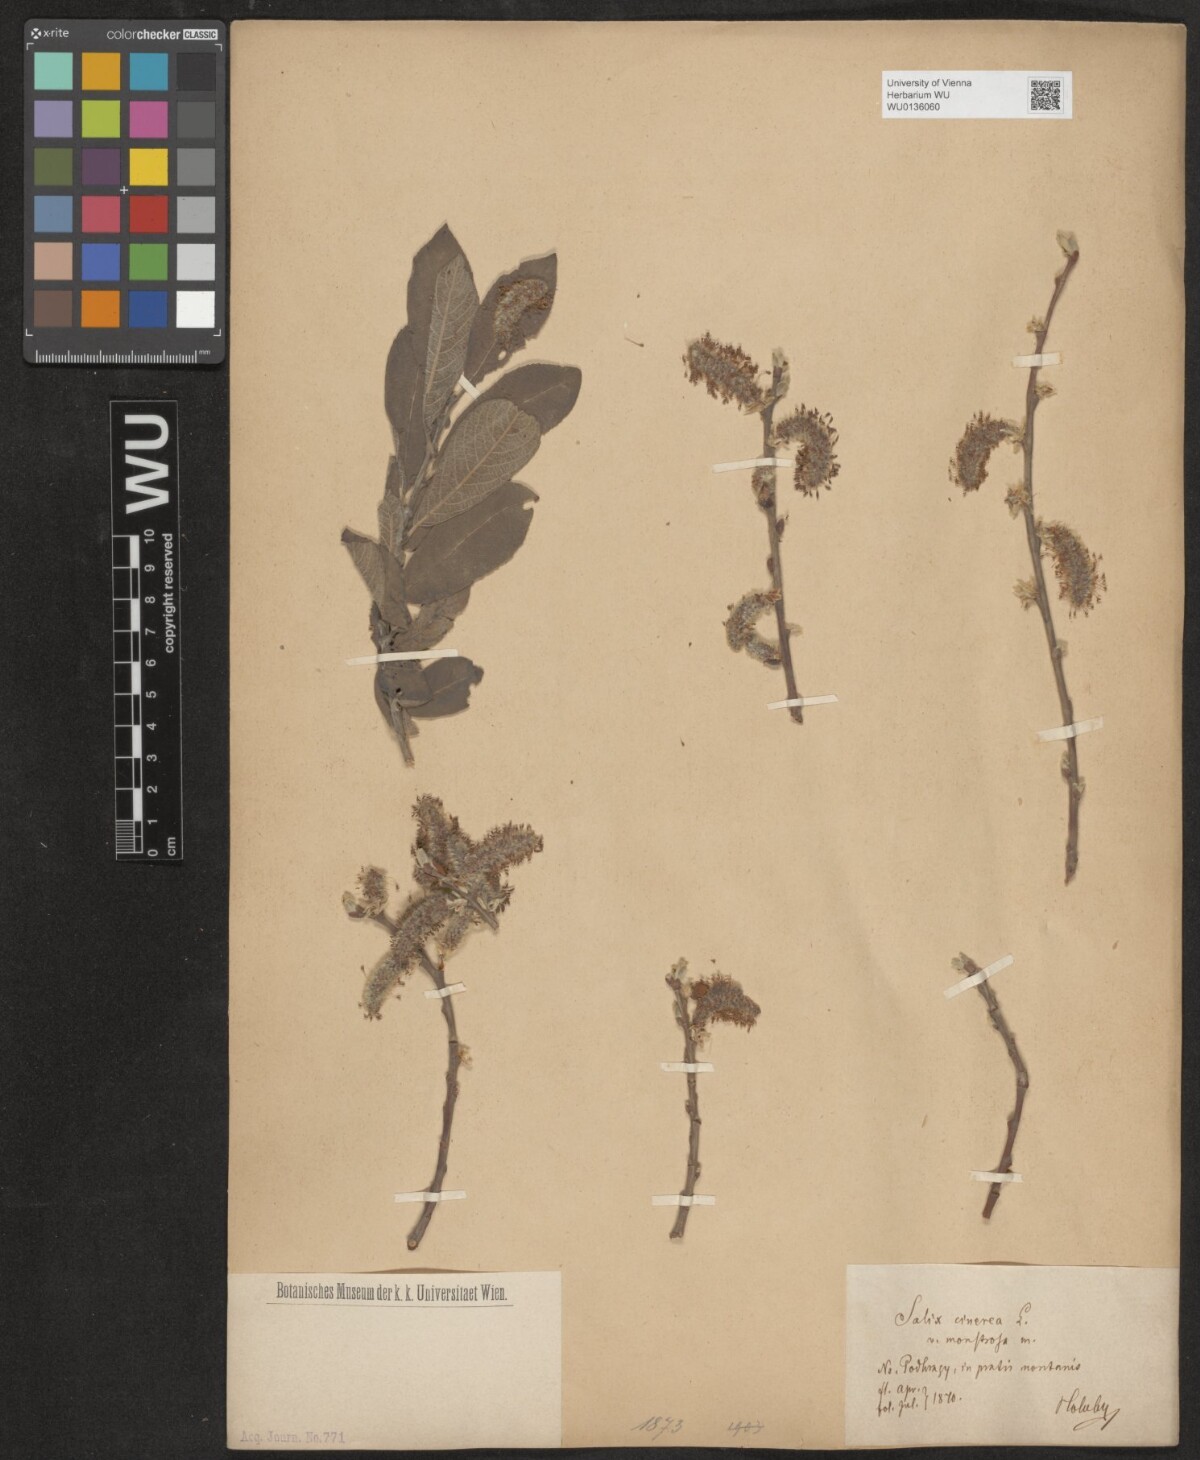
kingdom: Plantae
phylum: Tracheophyta
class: Magnoliopsida
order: Malpighiales
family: Salicaceae
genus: Salix
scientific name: Salix cinerea
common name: Common sallow
